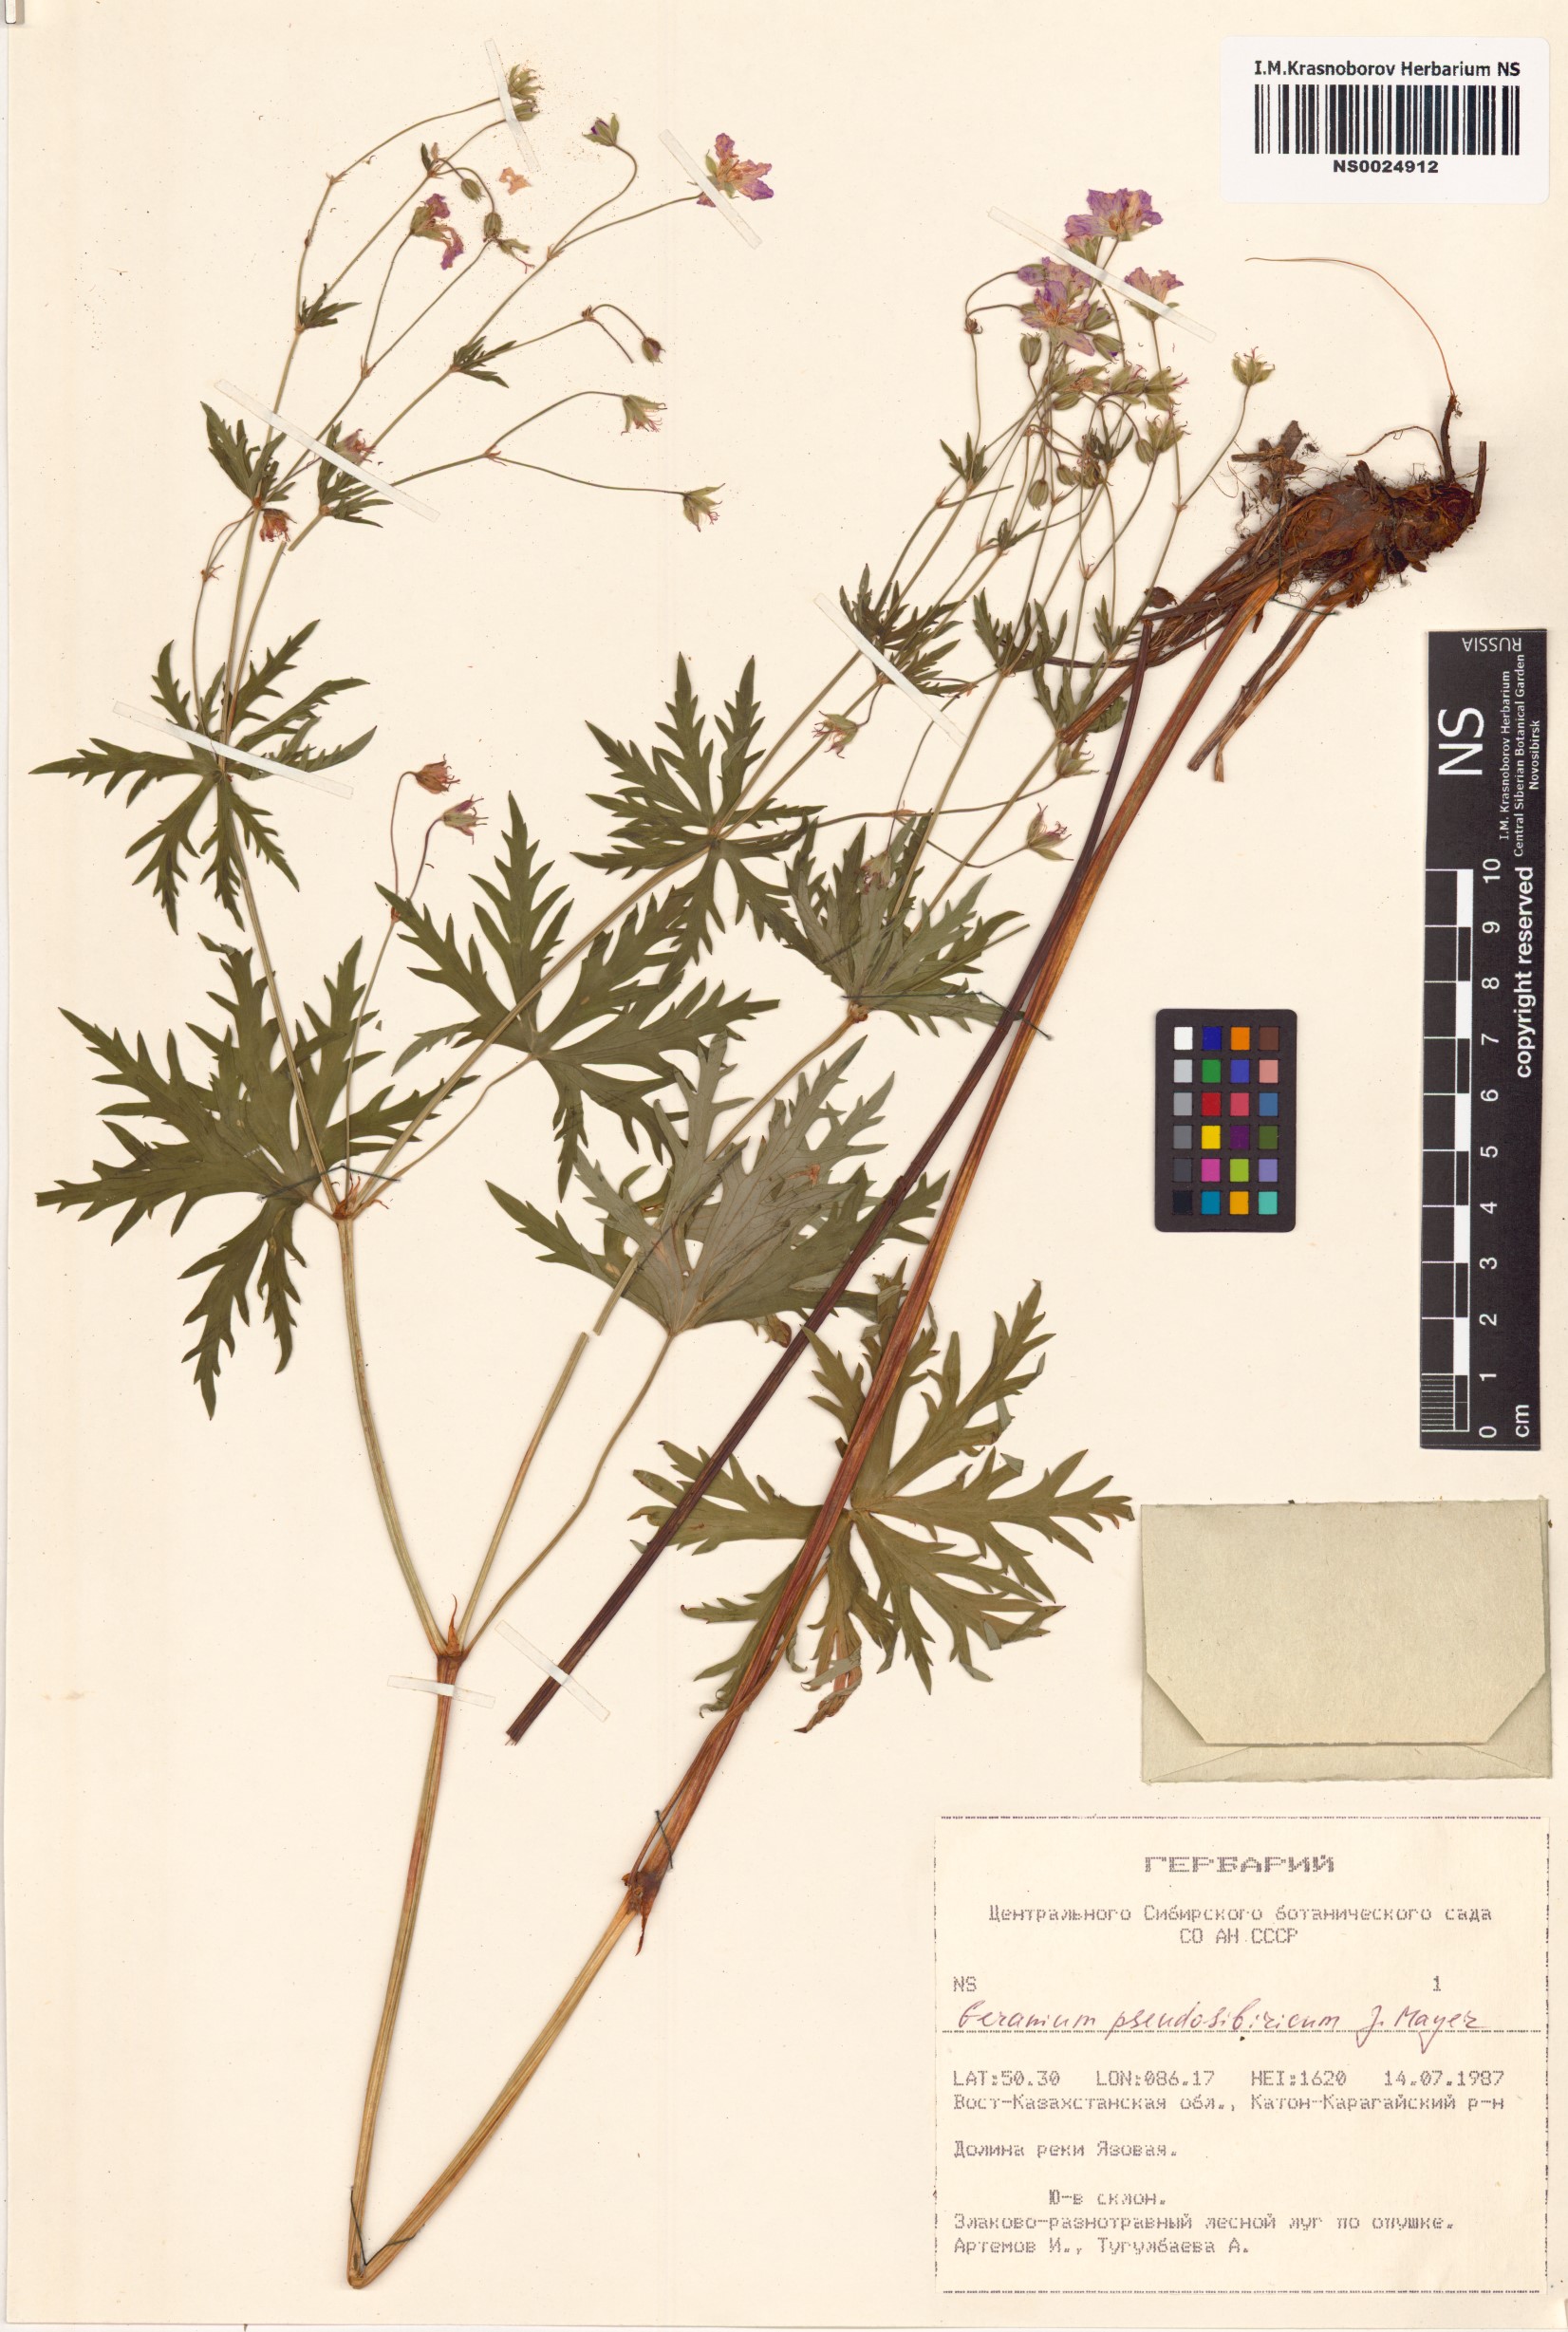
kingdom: Plantae
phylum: Tracheophyta
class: Magnoliopsida
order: Geraniales
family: Geraniaceae
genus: Geranium
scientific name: Geranium pseudosibiricum
